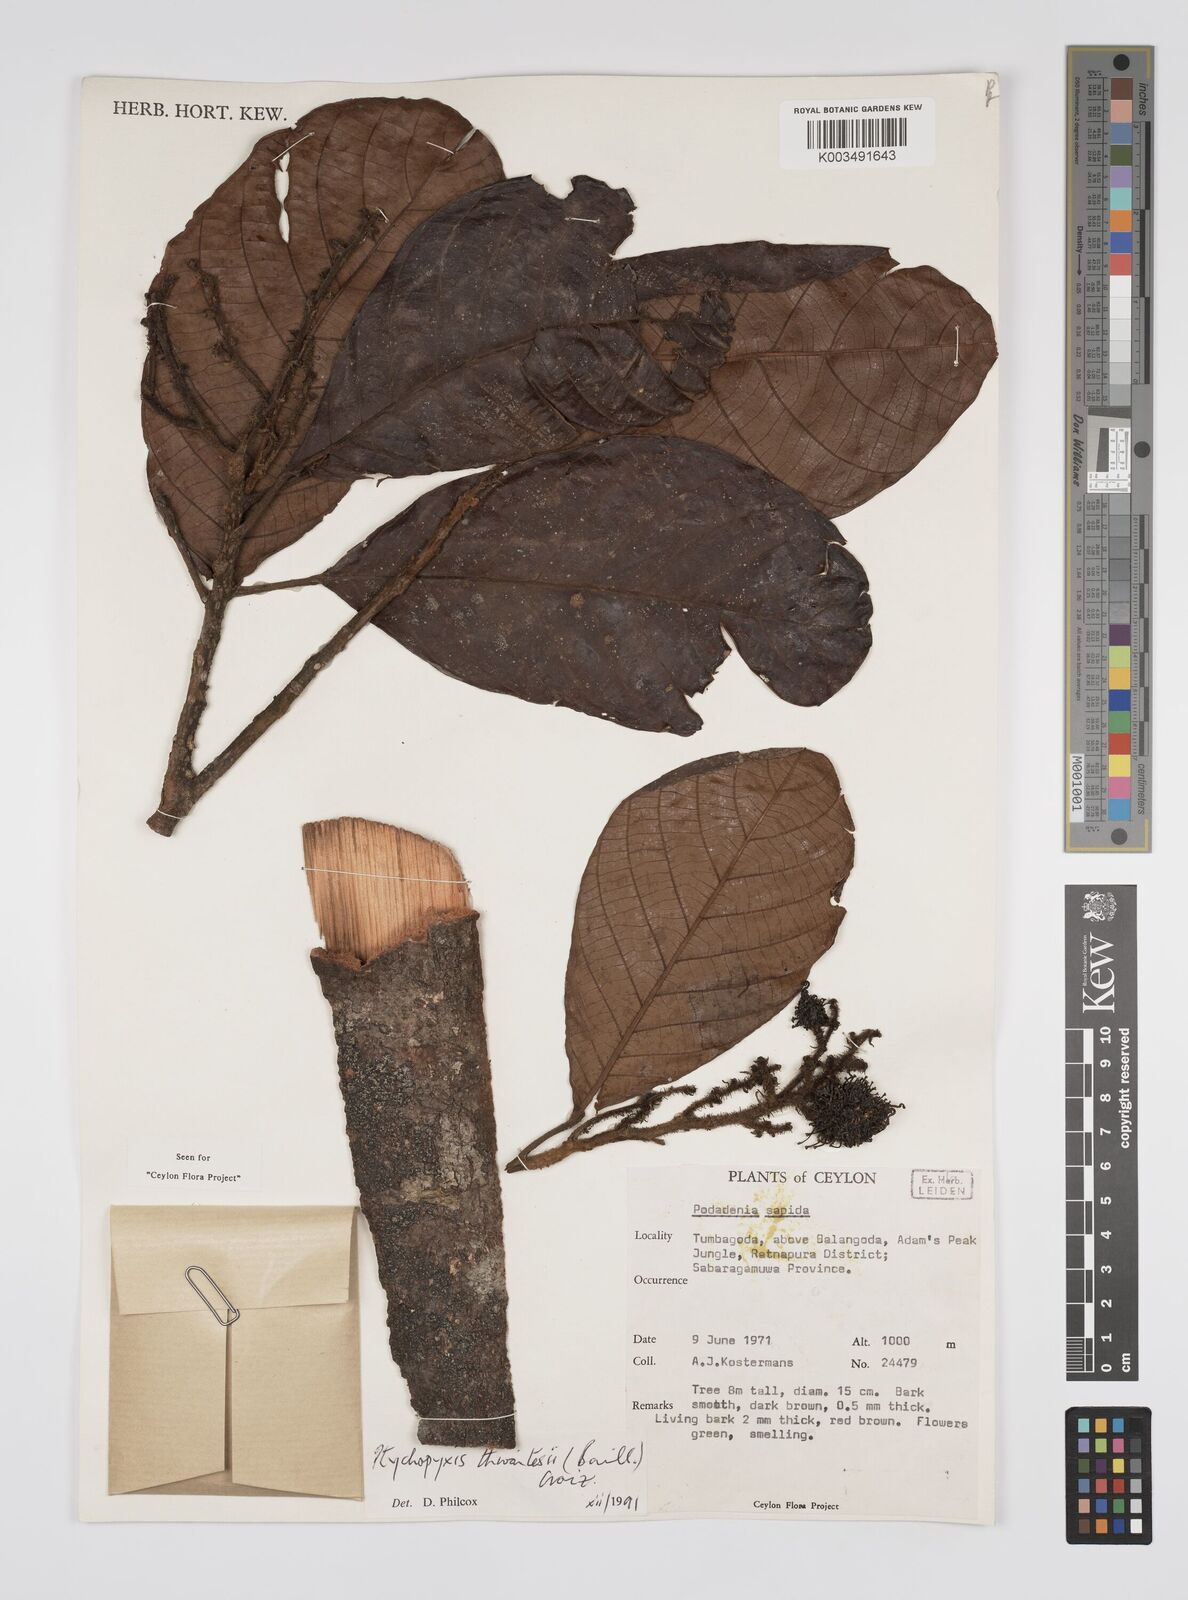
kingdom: Plantae
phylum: Tracheophyta
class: Magnoliopsida
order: Malpighiales
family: Euphorbiaceae
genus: Podadenia
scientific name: Podadenia sapida
